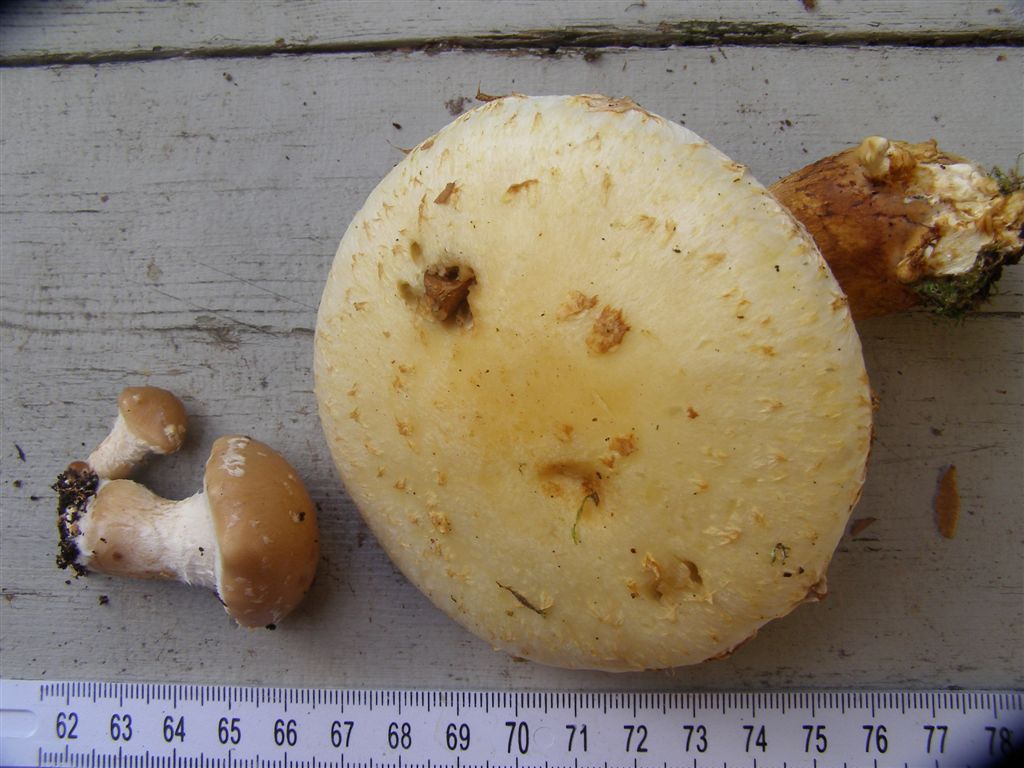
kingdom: Fungi
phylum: Basidiomycota
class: Agaricomycetes
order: Agaricales
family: Strophariaceae
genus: Pholiota
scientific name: Pholiota heteroclita
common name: duftende kæmpeskælhat
